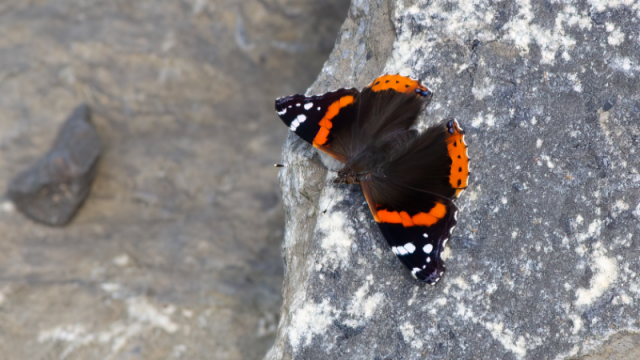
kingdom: Animalia
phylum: Arthropoda
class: Insecta
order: Lepidoptera
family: Nymphalidae
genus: Vanessa
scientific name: Vanessa atalanta
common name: Red Admiral
